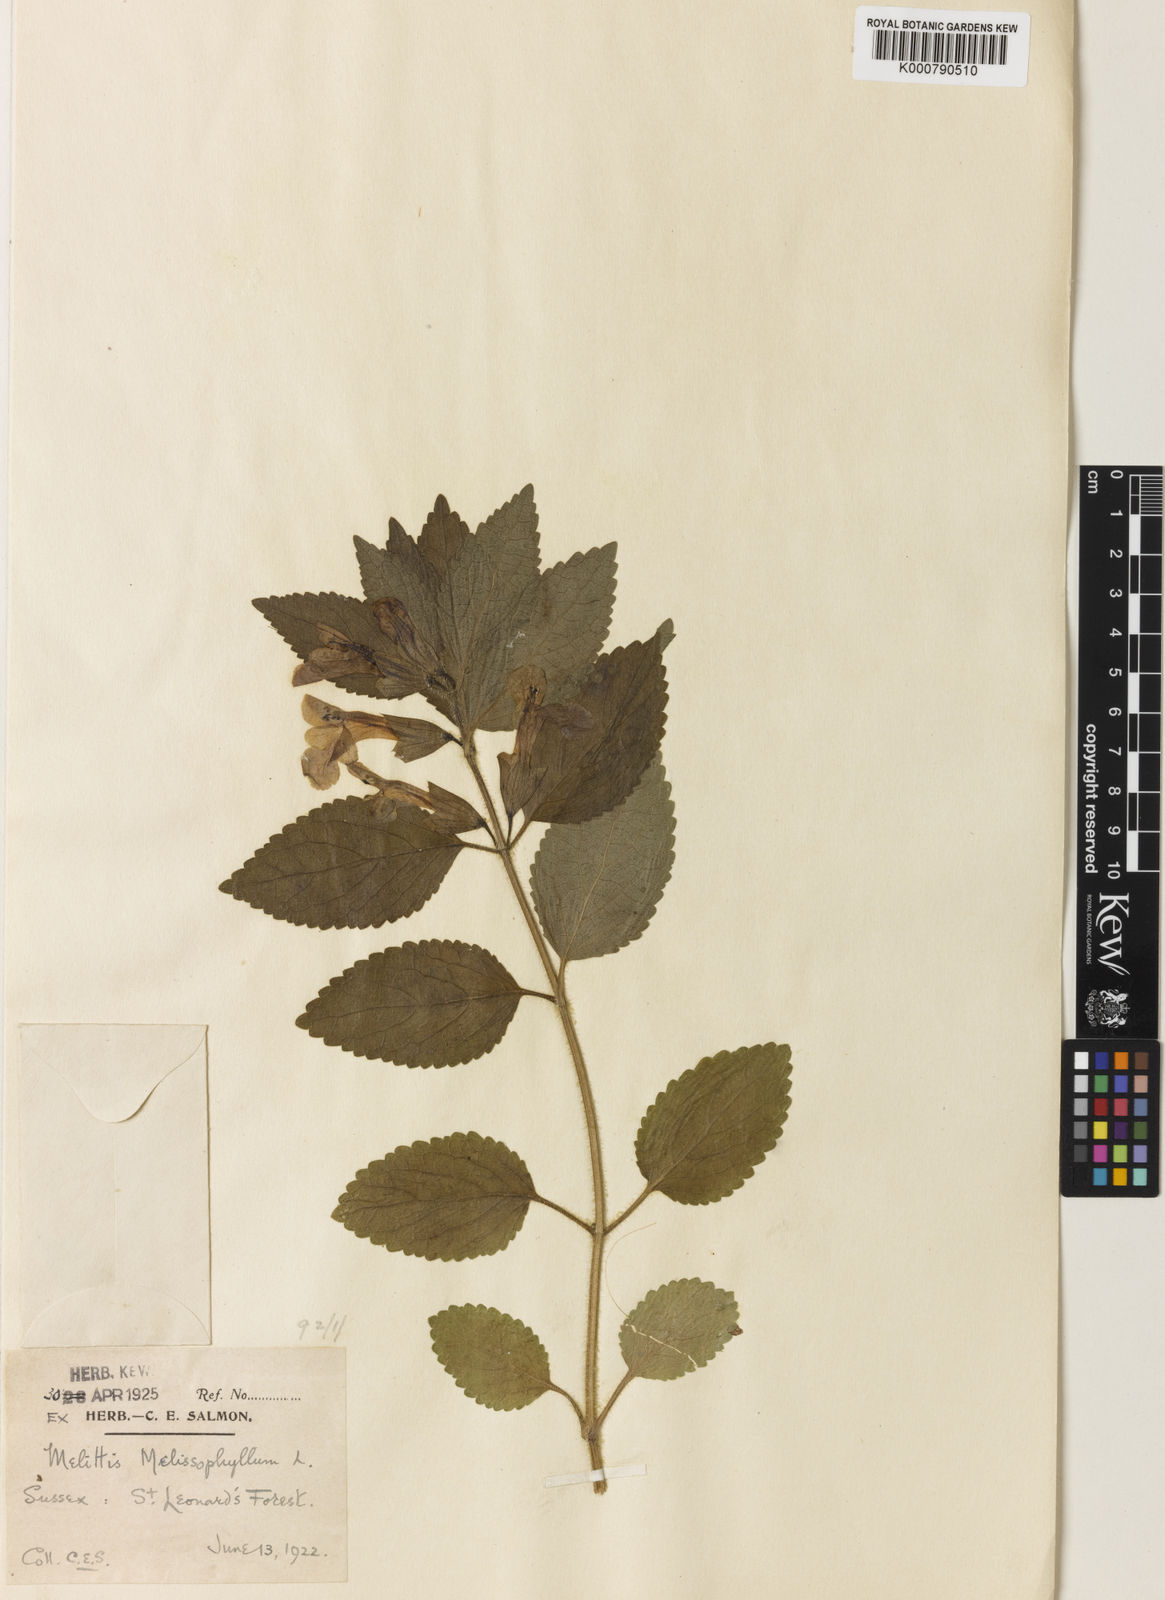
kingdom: Plantae
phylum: Tracheophyta
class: Magnoliopsida
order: Lamiales
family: Lamiaceae
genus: Melittis
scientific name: Melittis melissophyllum
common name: Bastard balm
